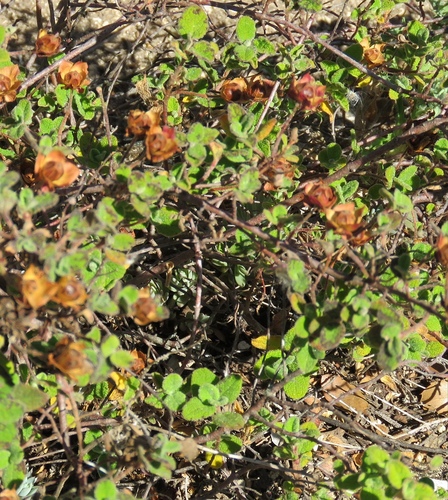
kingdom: Plantae
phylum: Tracheophyta
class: Magnoliopsida
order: Malvales
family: Cistaceae
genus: Cistus
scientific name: Cistus salviifolius
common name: Salvia cistus
